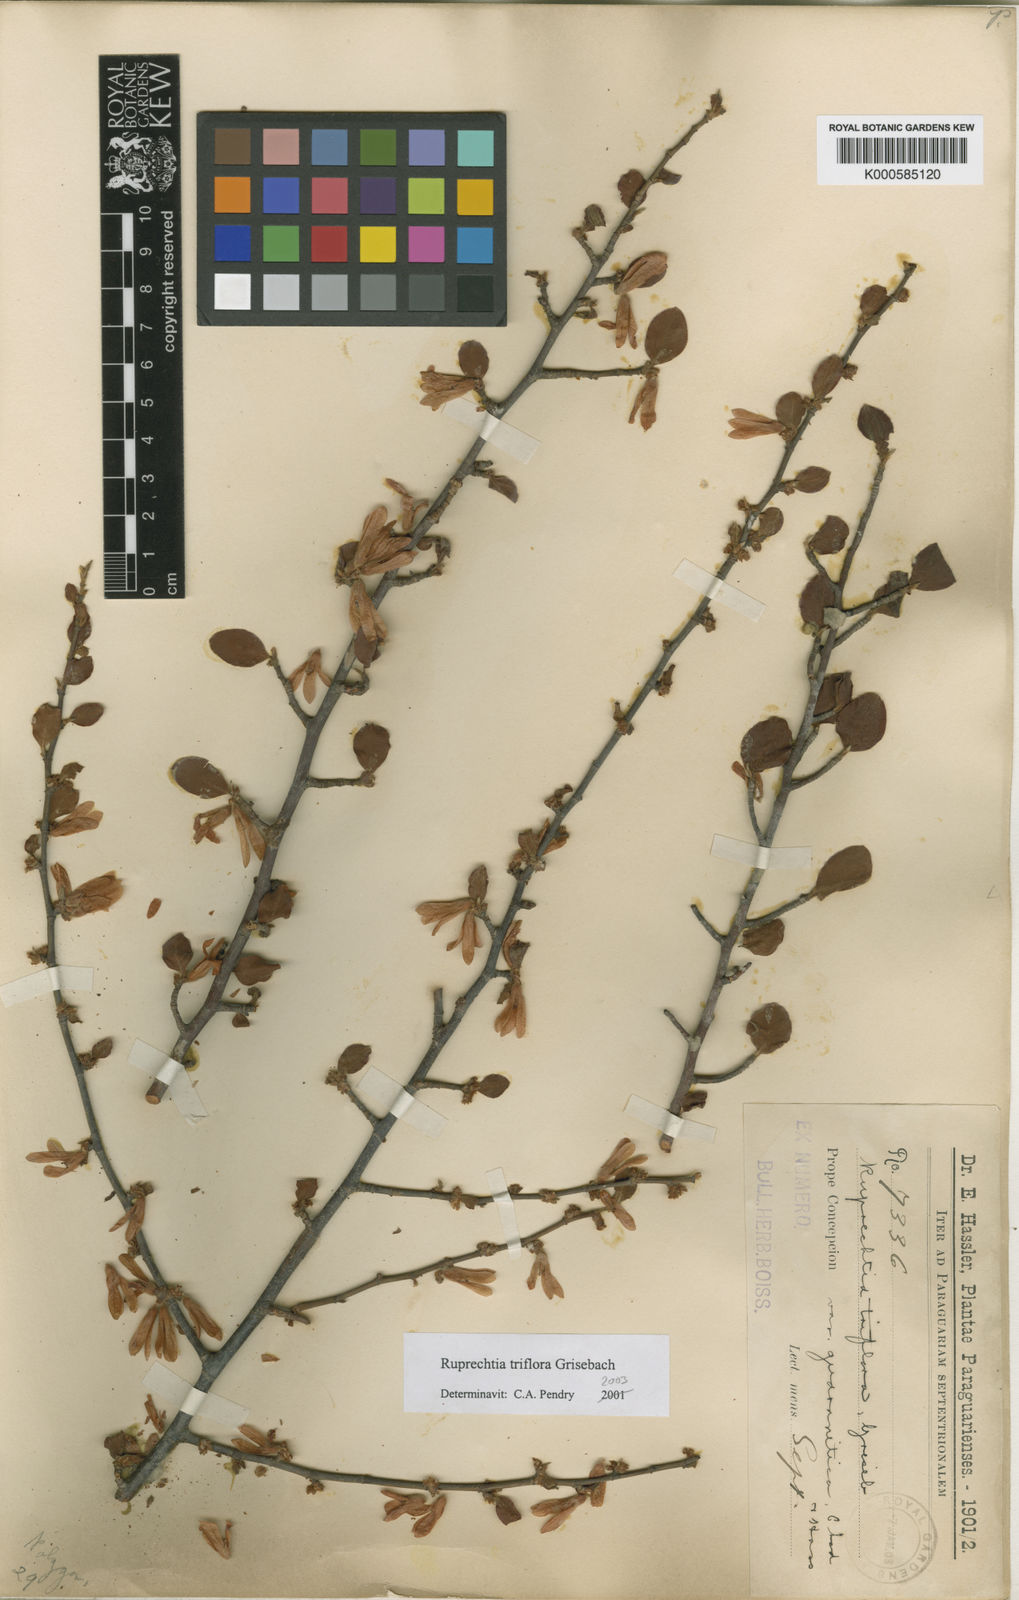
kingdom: Plantae
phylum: Tracheophyta
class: Magnoliopsida
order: Caryophyllales
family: Polygonaceae
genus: Salta
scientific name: Salta triflora
